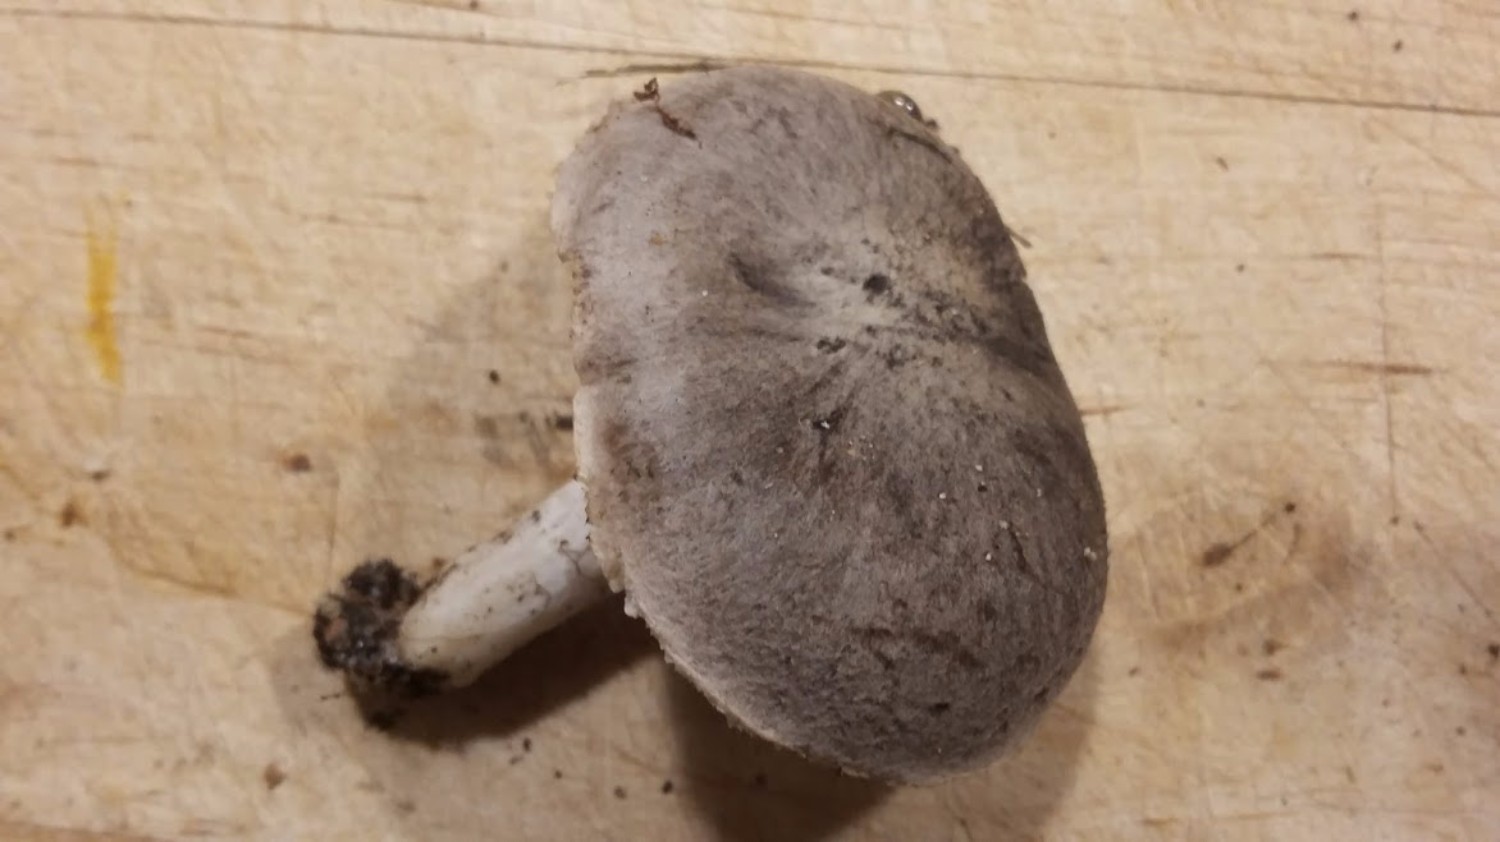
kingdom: Fungi
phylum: Basidiomycota
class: Agaricomycetes
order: Agaricales
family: Tricholomataceae
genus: Tricholoma
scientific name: Tricholoma terreum
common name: jordfarvet ridderhat
